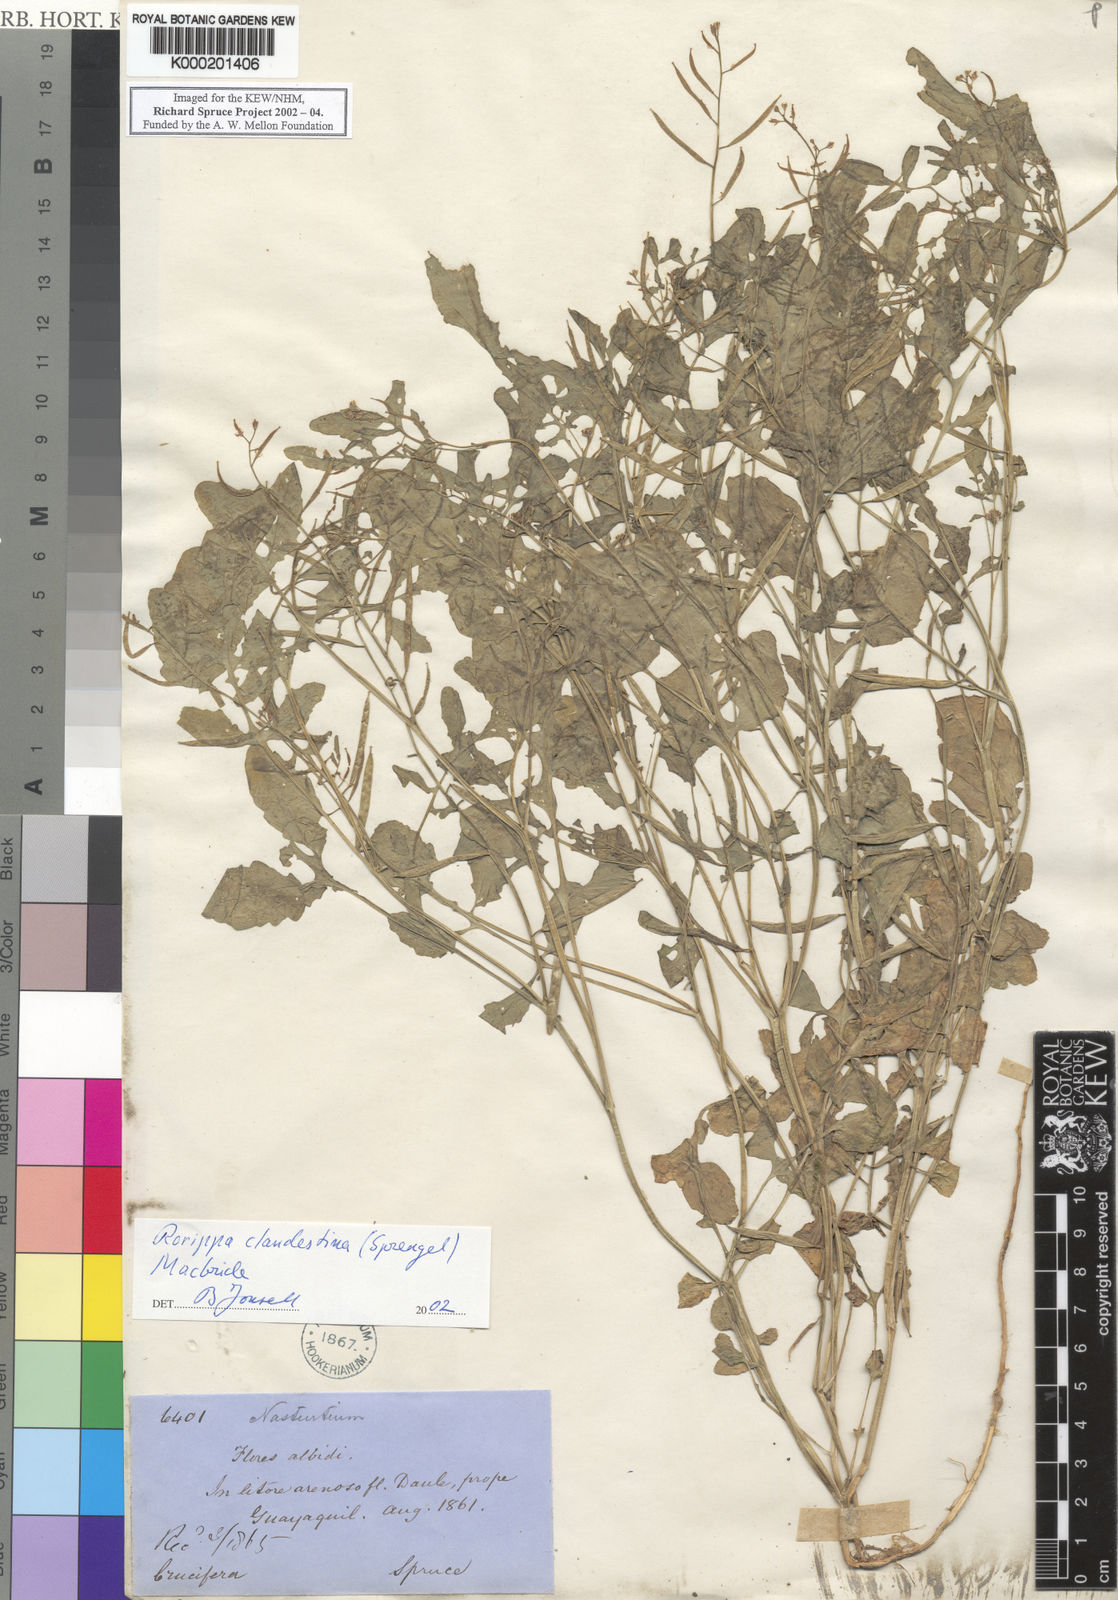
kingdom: Plantae
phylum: Tracheophyta
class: Magnoliopsida
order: Brassicales
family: Brassicaceae
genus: Rorippa
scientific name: Rorippa clandestina
